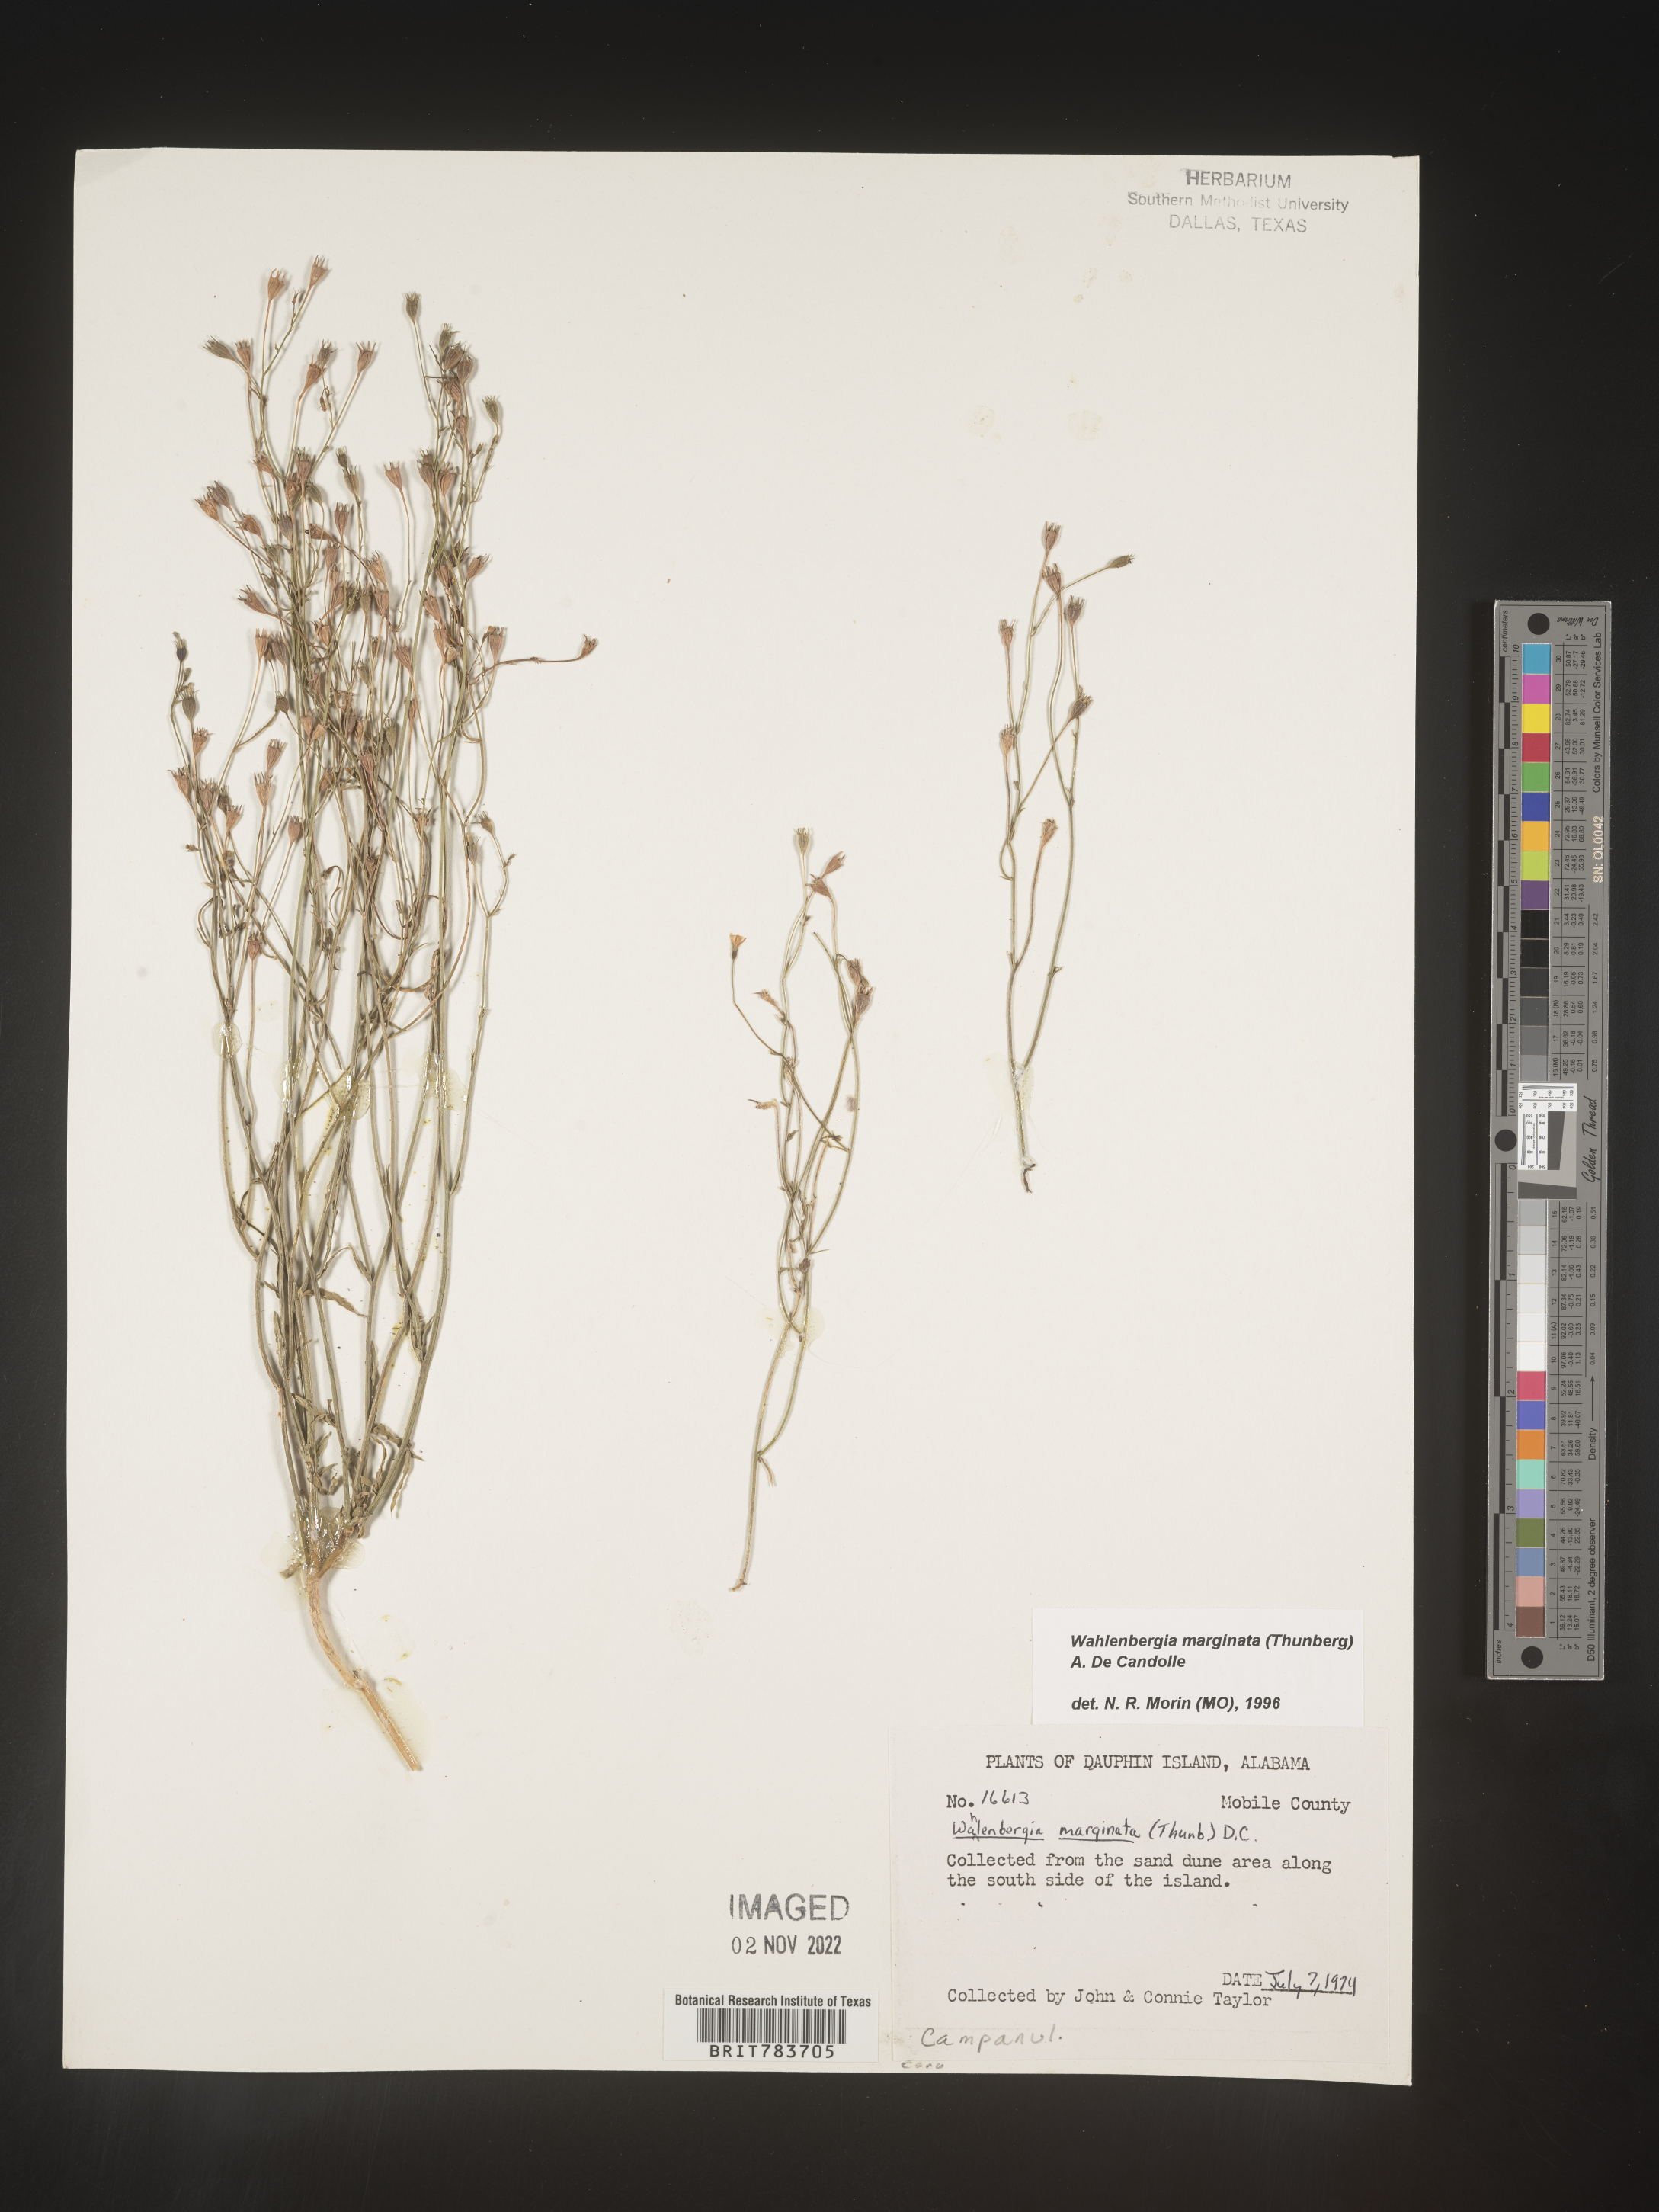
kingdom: Plantae
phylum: Tracheophyta
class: Magnoliopsida
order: Asterales
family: Campanulaceae
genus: Wahlenbergia
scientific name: Wahlenbergia marginata
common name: Southern rockbell
